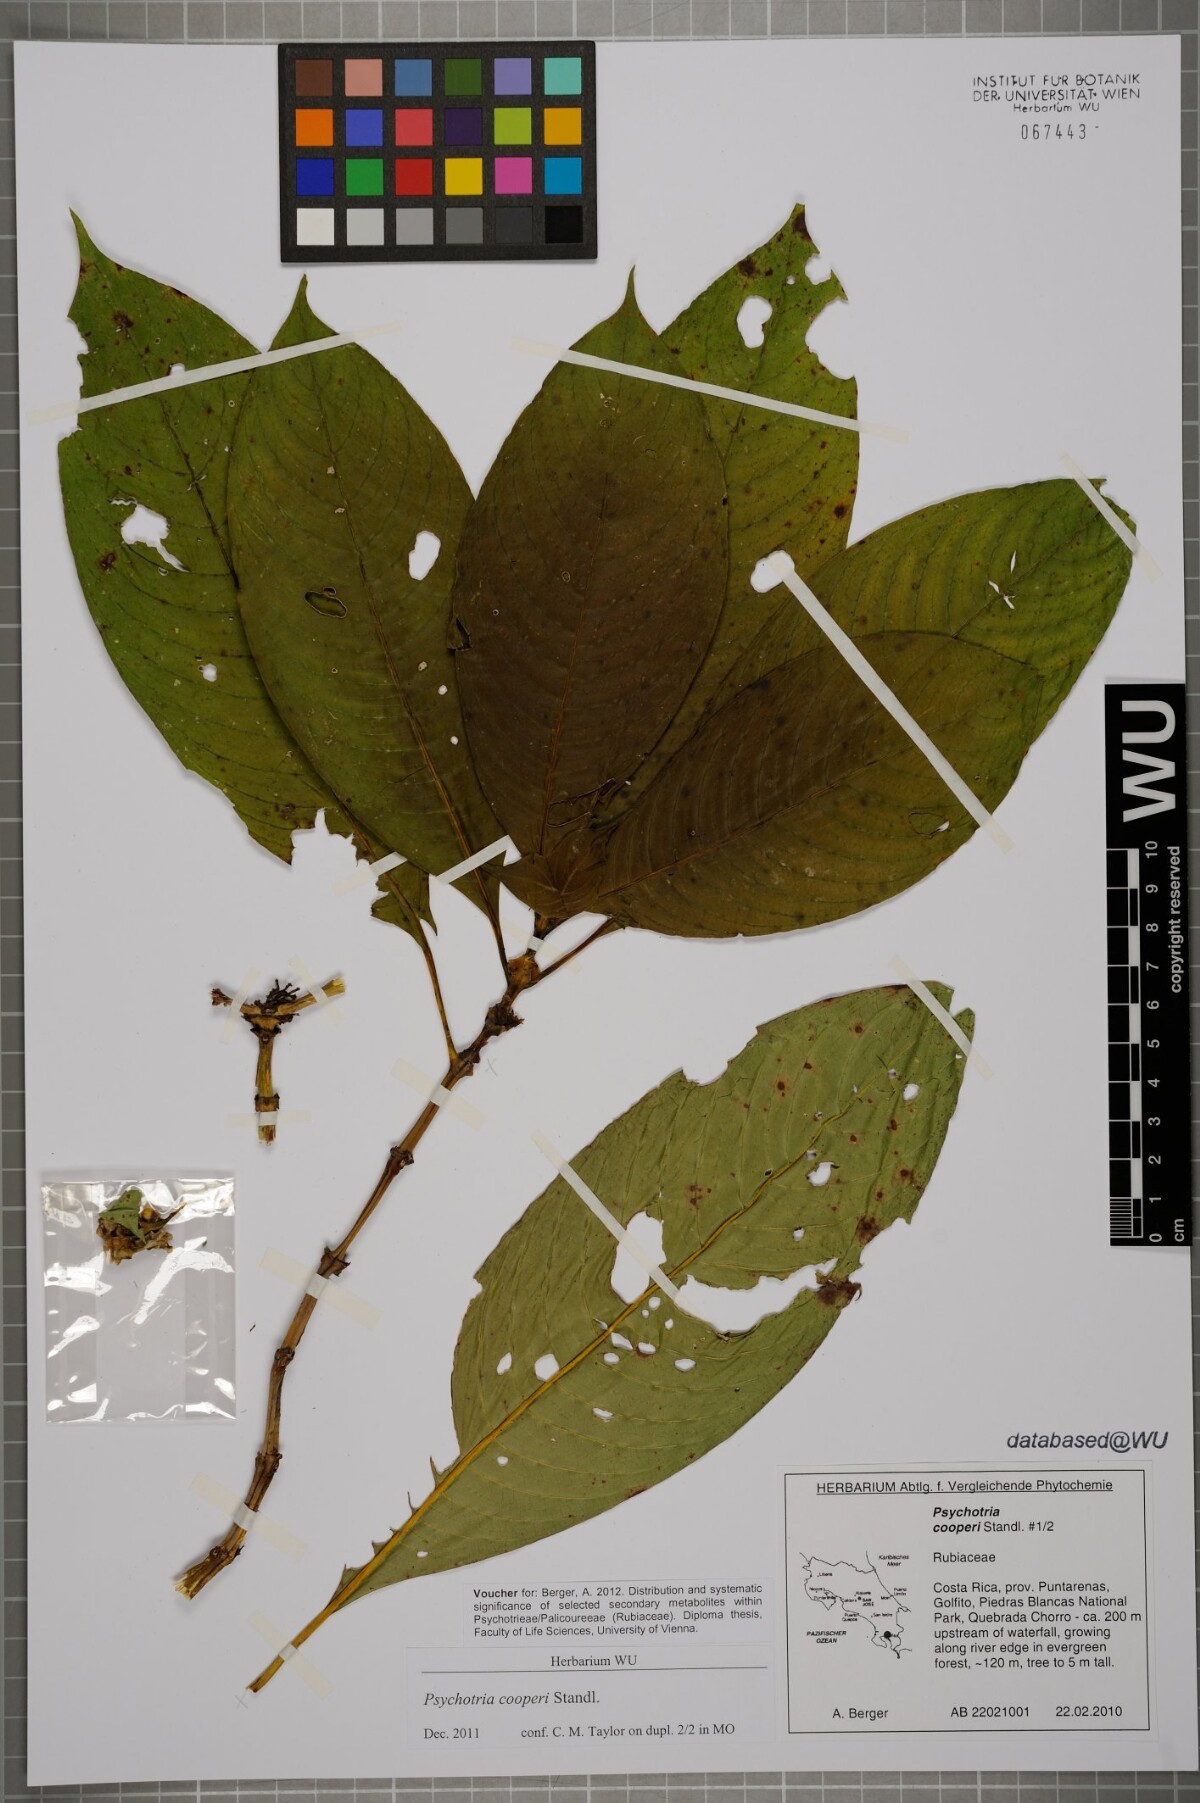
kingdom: Plantae
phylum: Tracheophyta
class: Magnoliopsida
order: Gentianales
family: Rubiaceae
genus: Palicourea
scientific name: Palicourea pseudaxillaris
